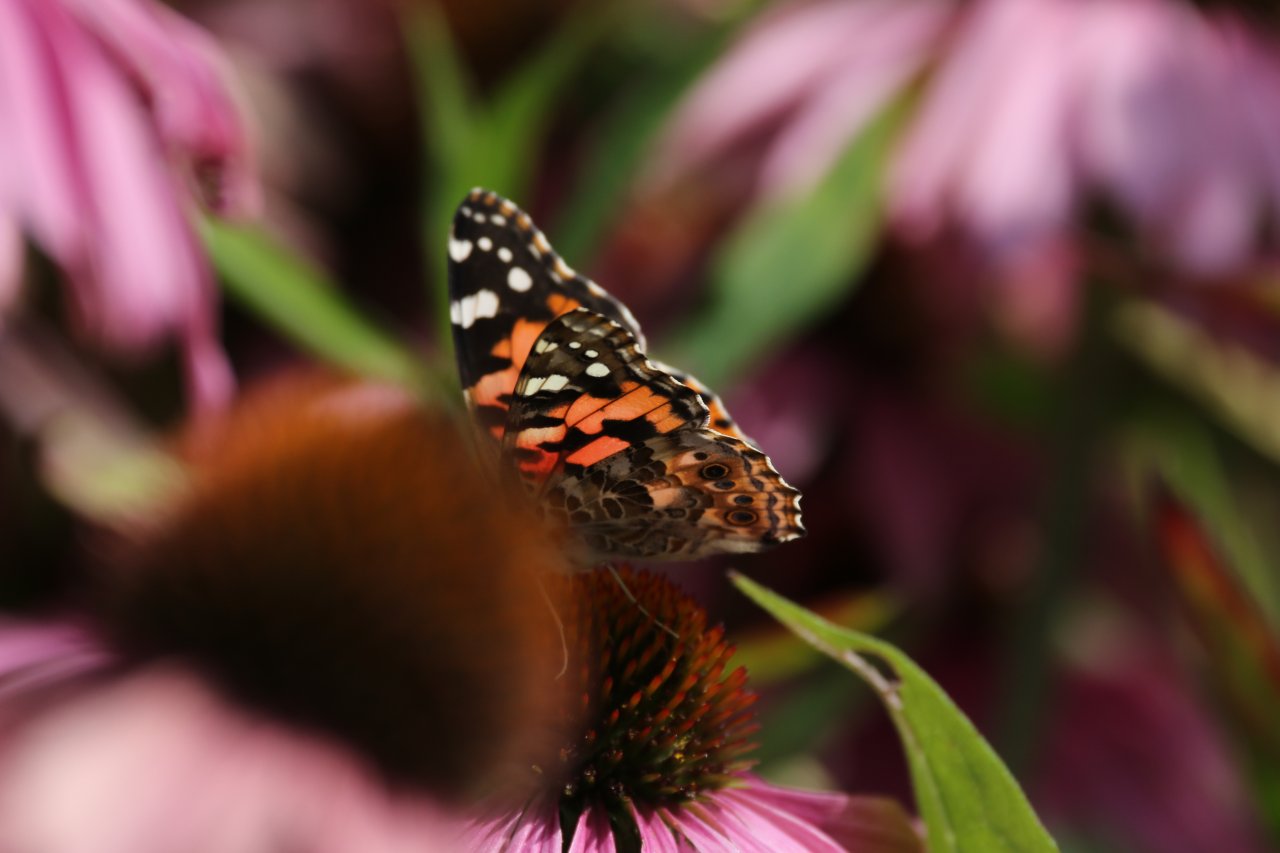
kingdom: Animalia
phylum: Arthropoda
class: Insecta
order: Lepidoptera
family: Nymphalidae
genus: Vanessa
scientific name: Vanessa cardui
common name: Painted Lady
